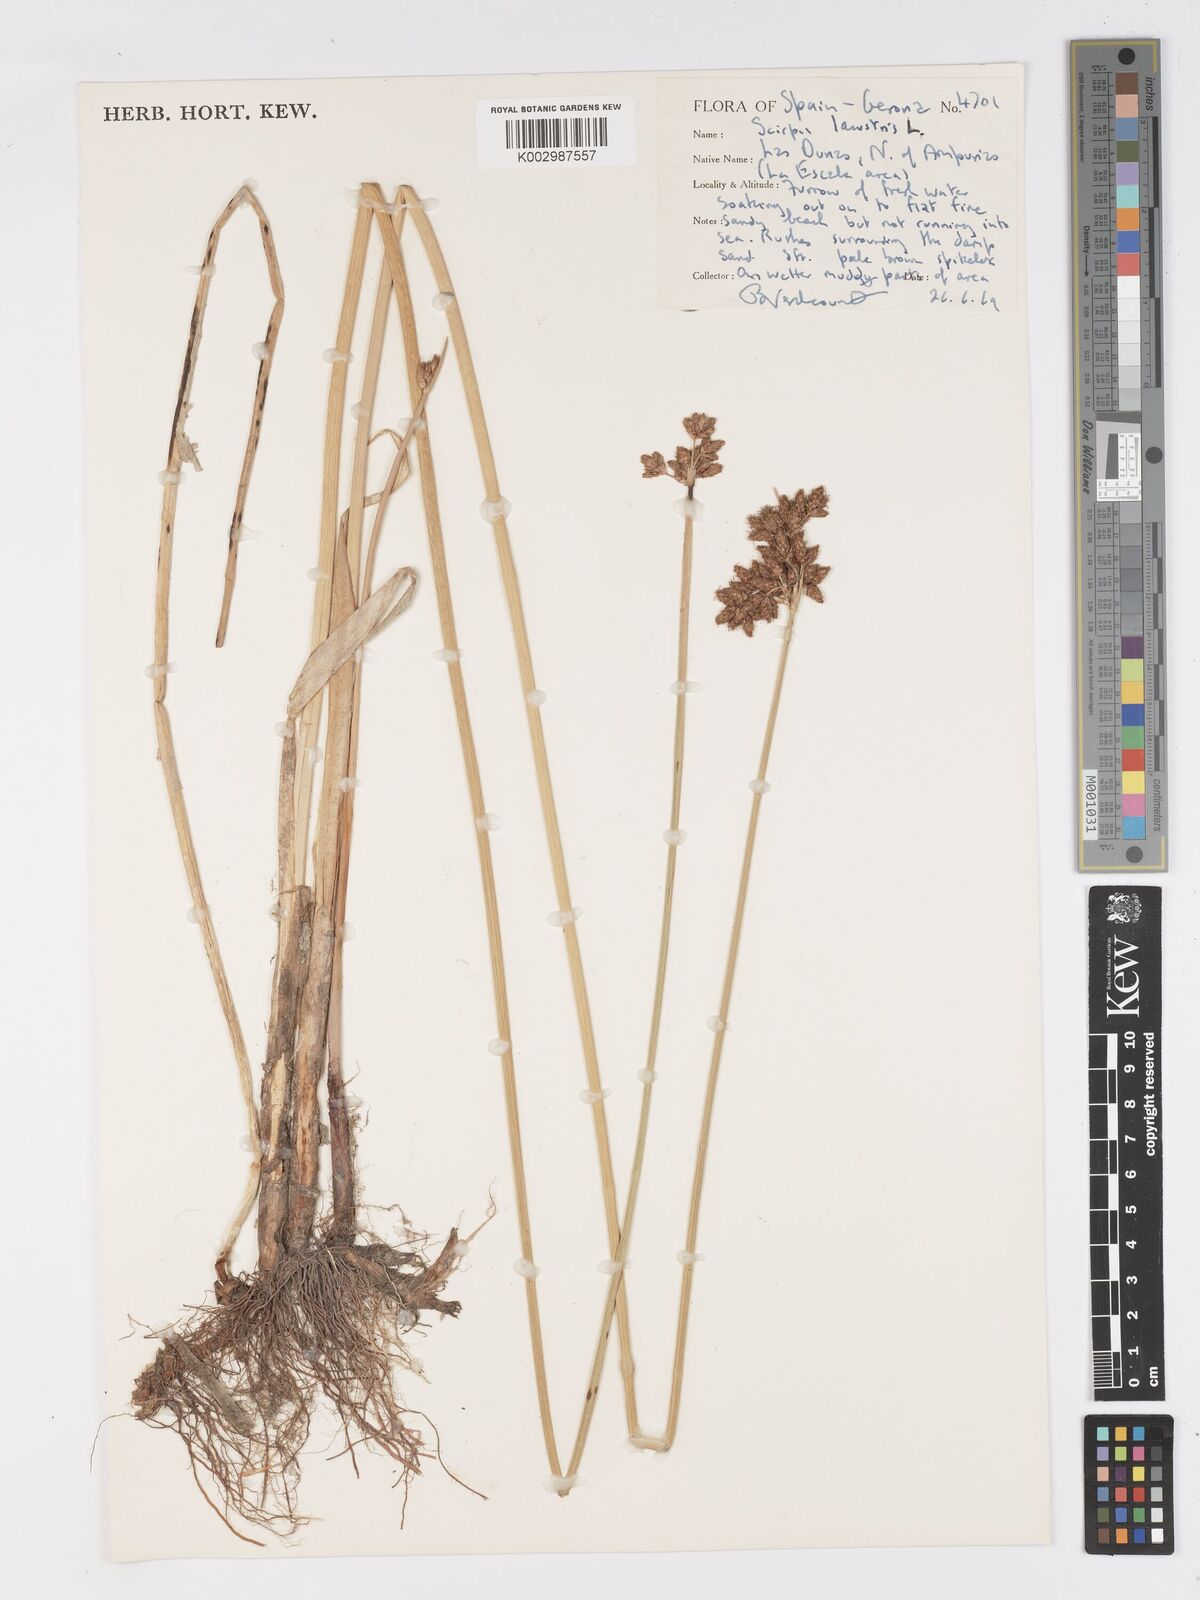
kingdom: Plantae
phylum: Tracheophyta
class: Liliopsida
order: Poales
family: Cyperaceae
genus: Schoenoplectus
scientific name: Schoenoplectus lacustris
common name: Common club-rush
